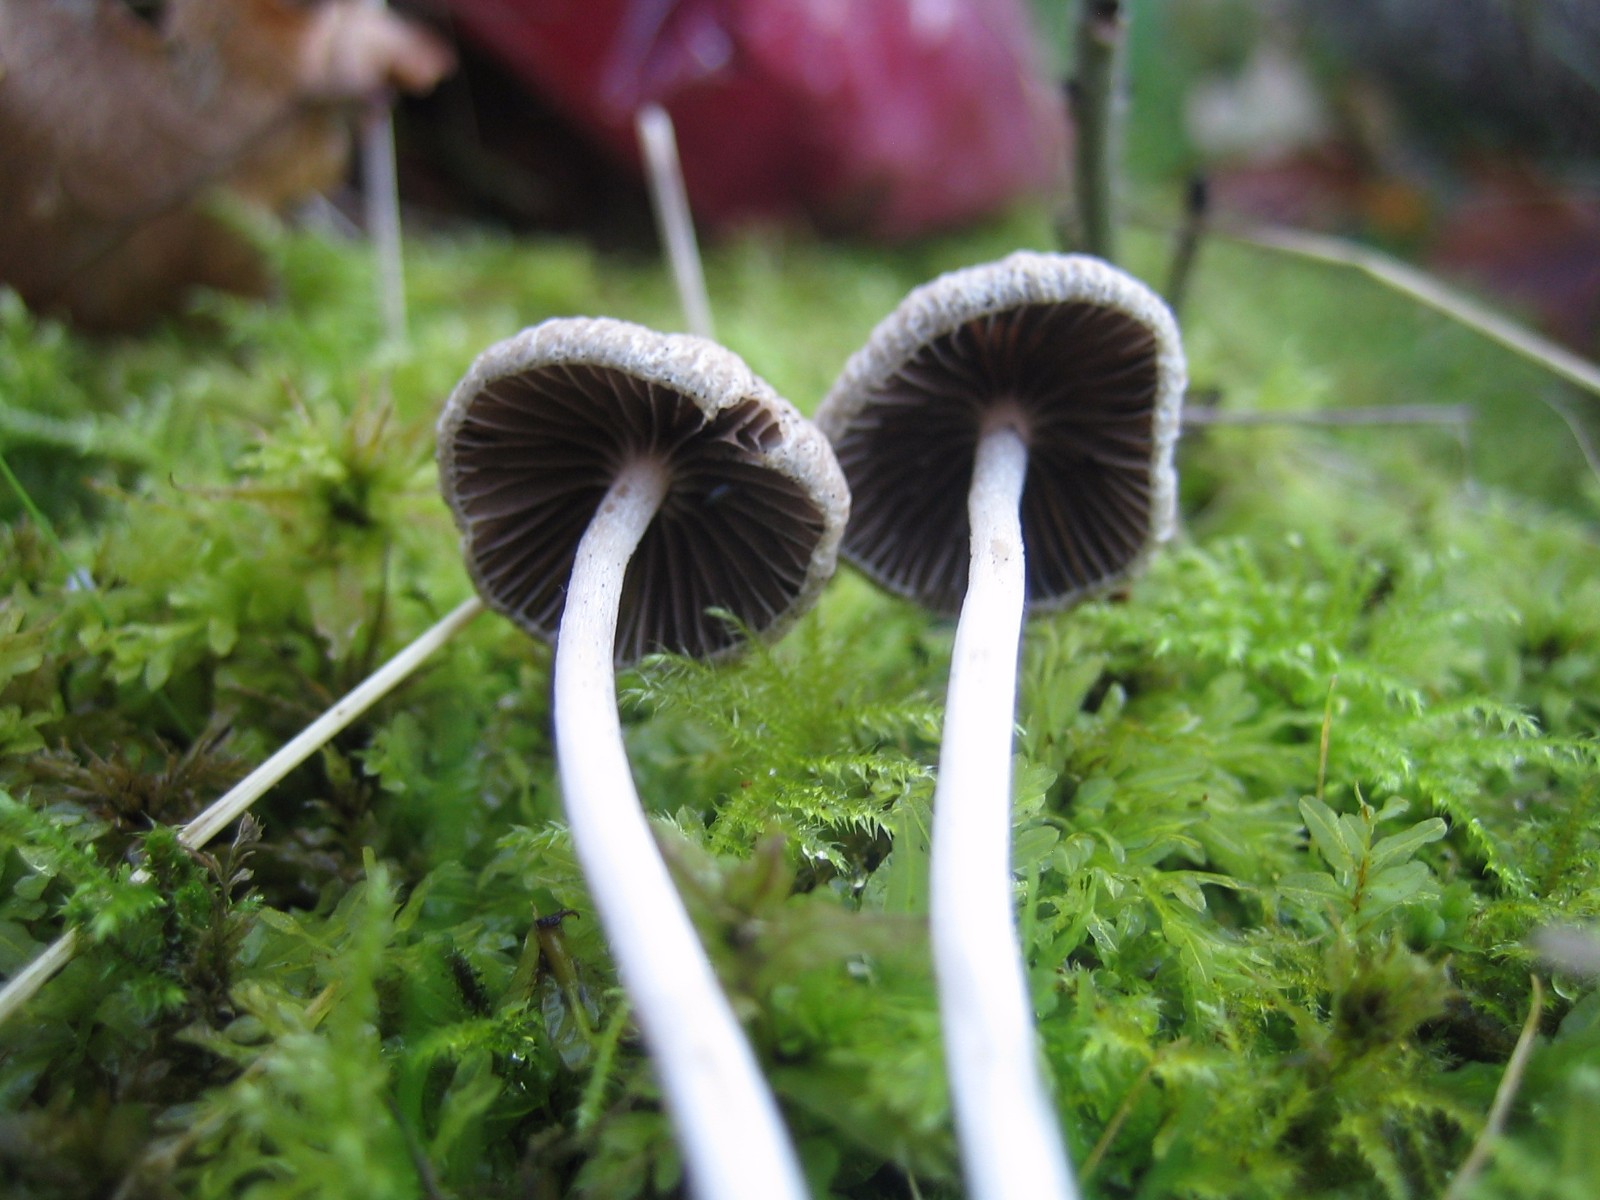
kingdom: Fungi
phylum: Basidiomycota
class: Agaricomycetes
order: Agaricales
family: Psathyrellaceae
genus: Psathyrella
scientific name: Psathyrella
